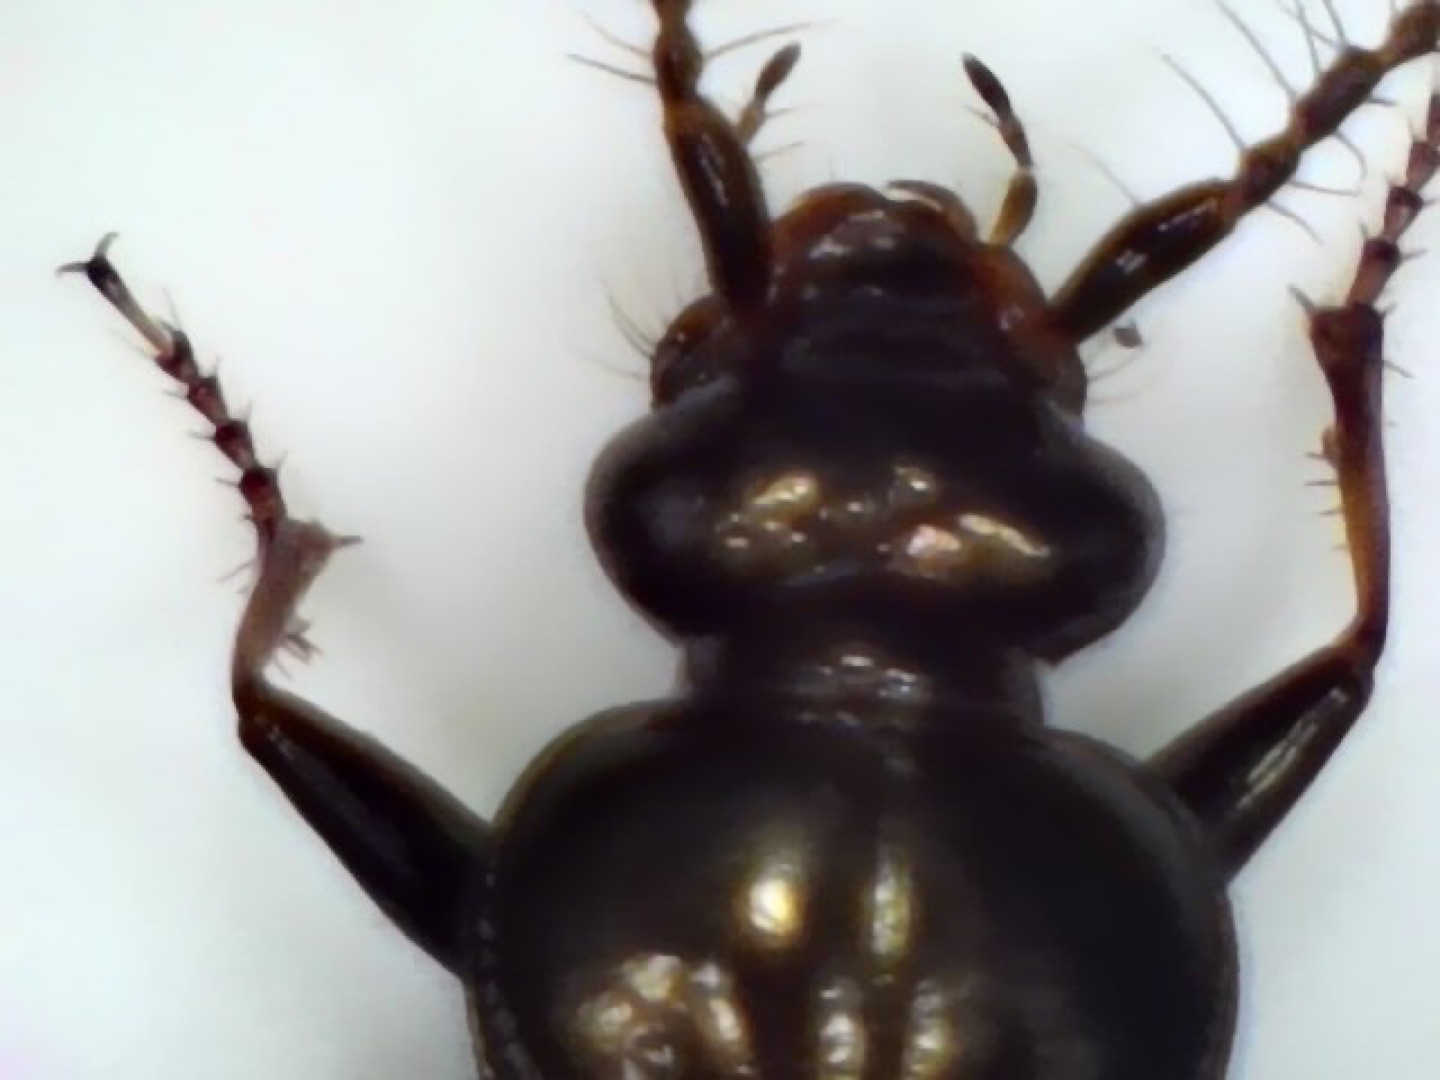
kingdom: Animalia
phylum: Arthropoda
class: Insecta
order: Coleoptera
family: Carabidae
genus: Loricera
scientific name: Loricera pilicornis
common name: Børsteløber
